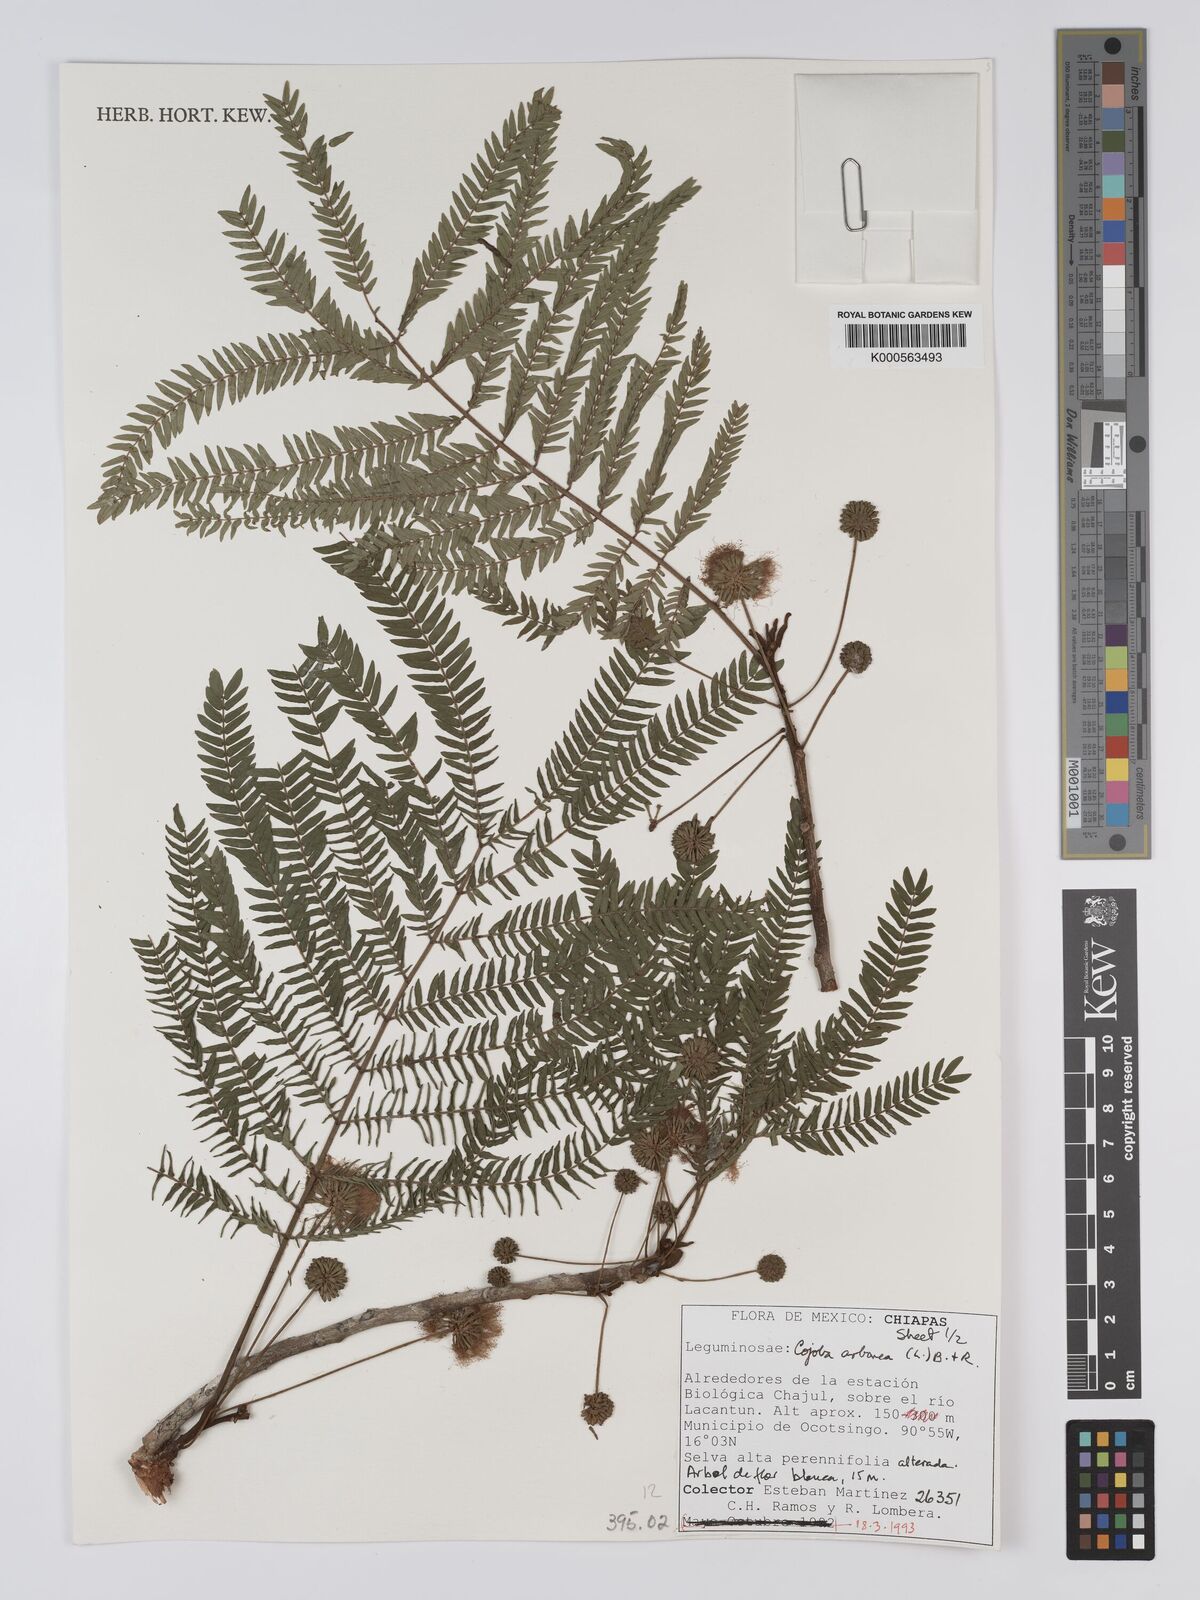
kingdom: Plantae
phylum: Tracheophyta
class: Magnoliopsida
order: Fabales
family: Fabaceae
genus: Cojoba
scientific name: Cojoba arborea
